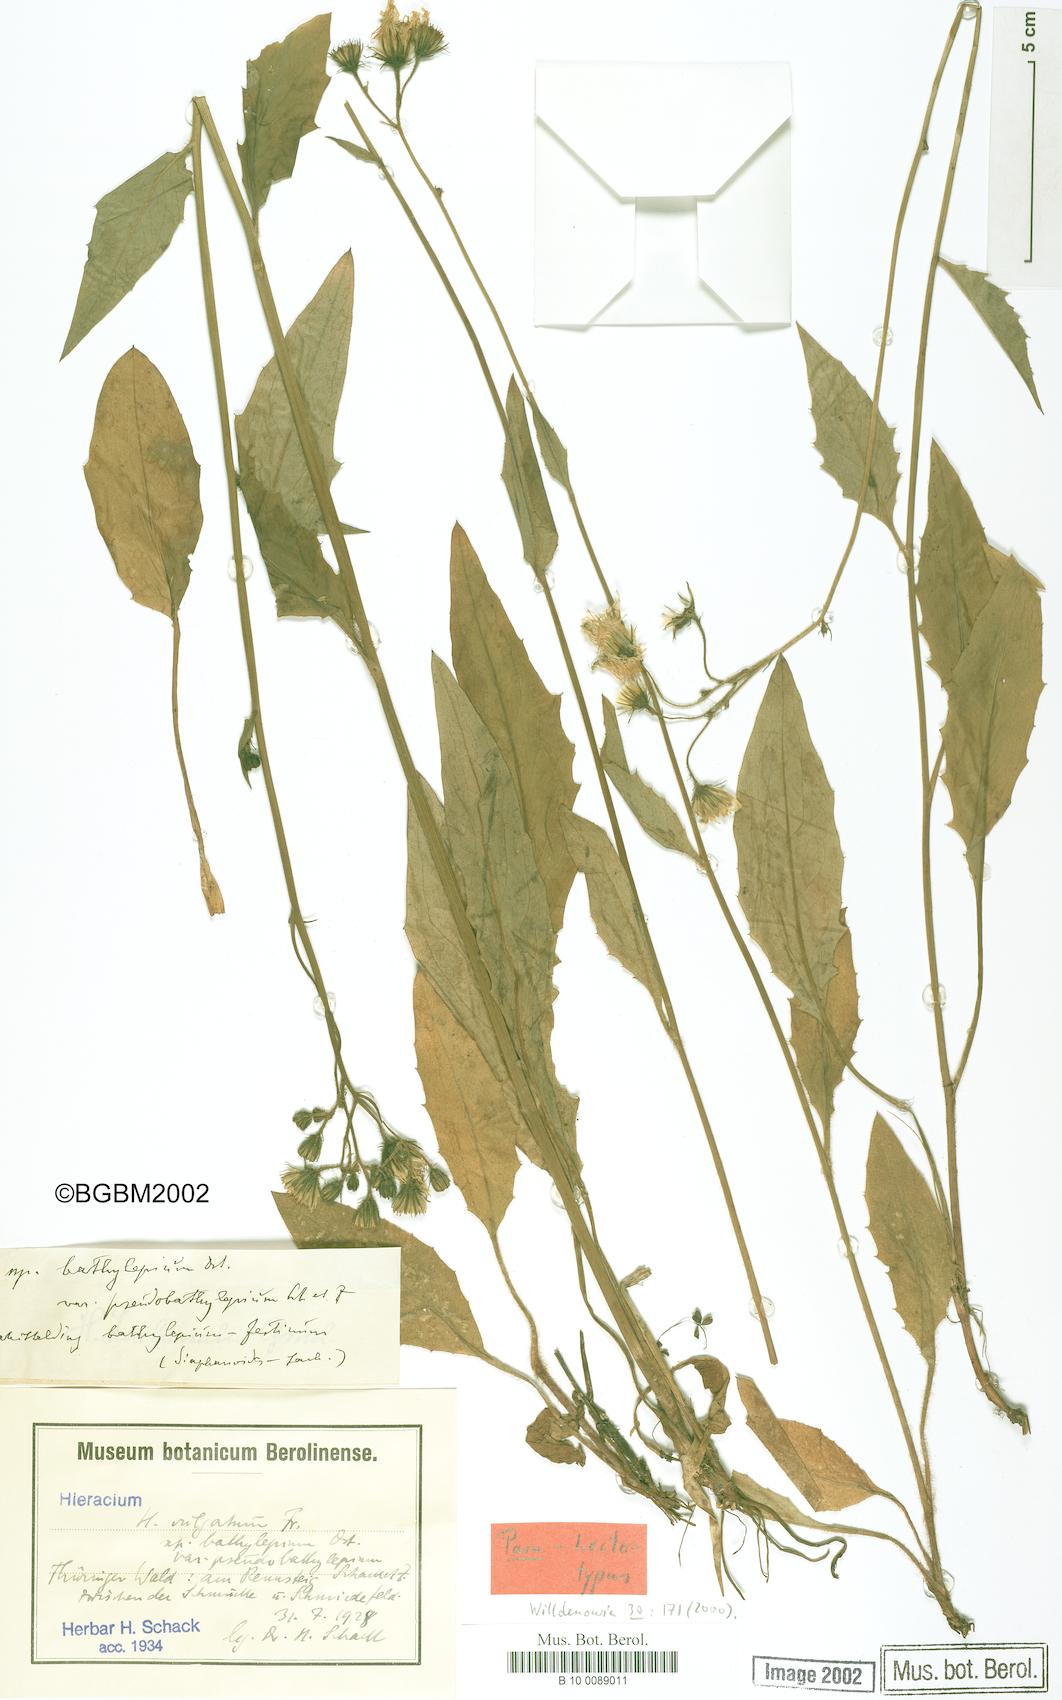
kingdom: Plantae
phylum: Tracheophyta
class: Magnoliopsida
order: Asterales
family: Asteraceae
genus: Hieracium
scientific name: Hieracium lachenalii
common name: Common hawkweed
